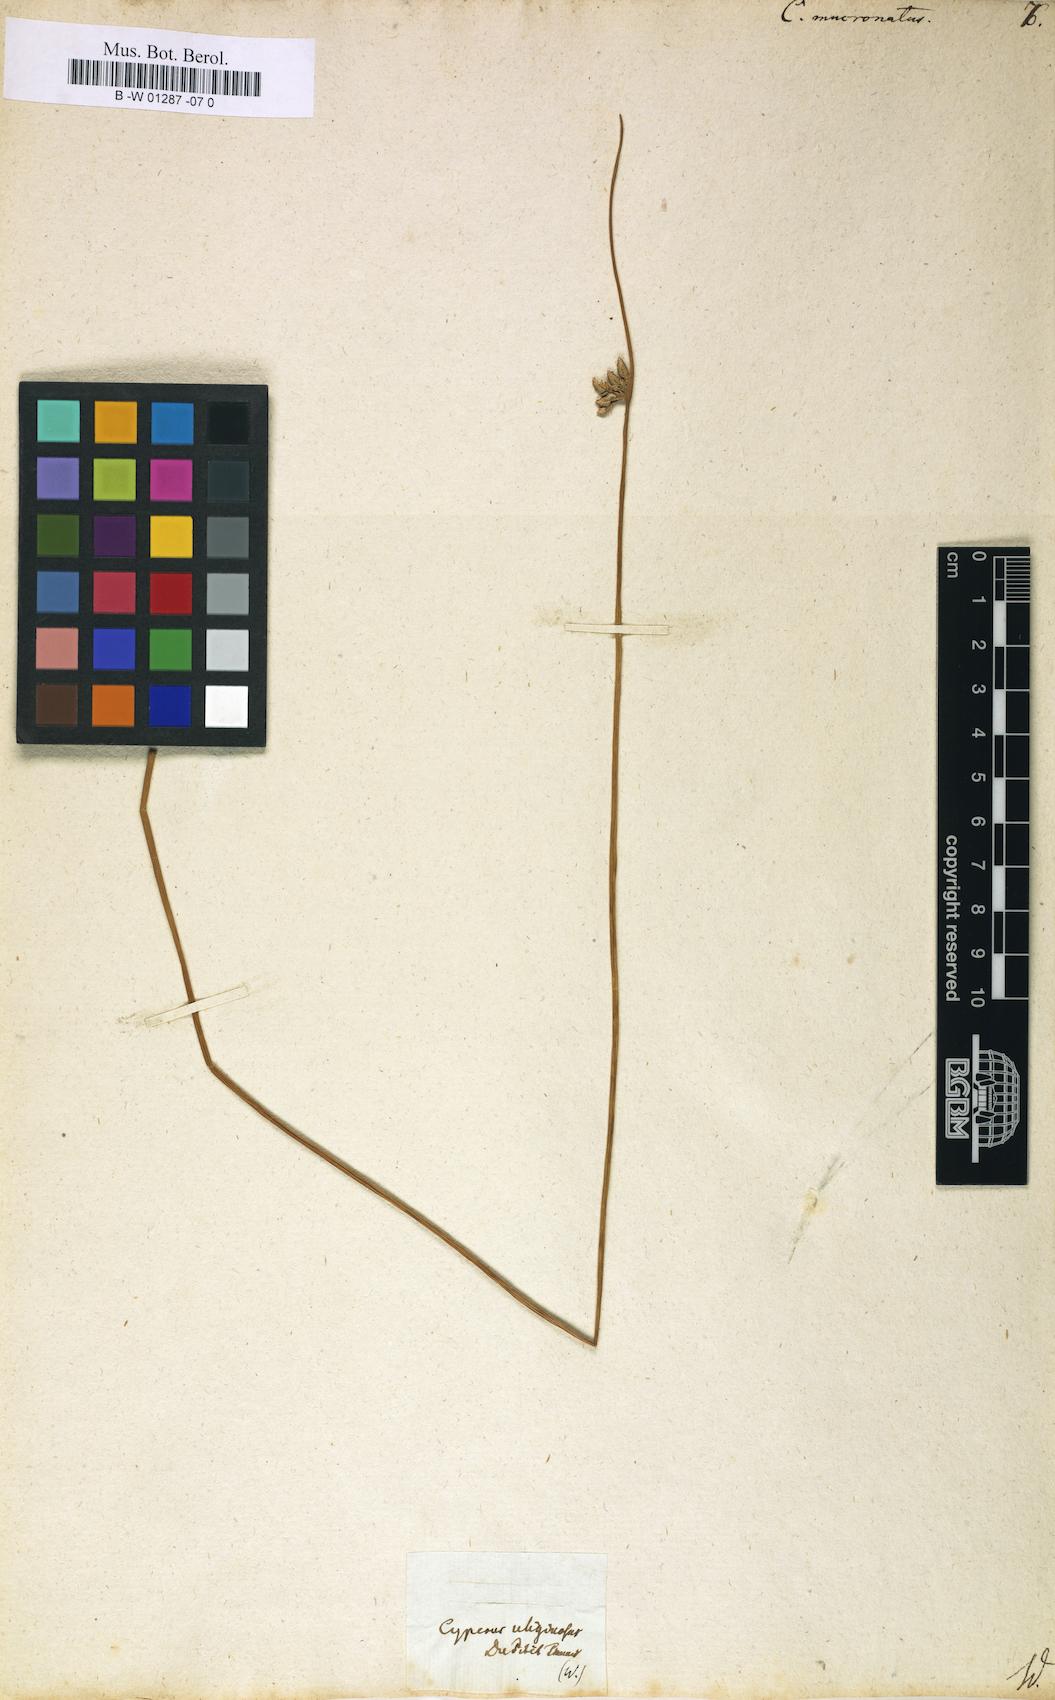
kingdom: Plantae
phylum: Tracheophyta
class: Liliopsida
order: Poales
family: Cyperaceae
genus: Cyperus
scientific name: Cyperus laevigatus
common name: Smooth flat sedge
